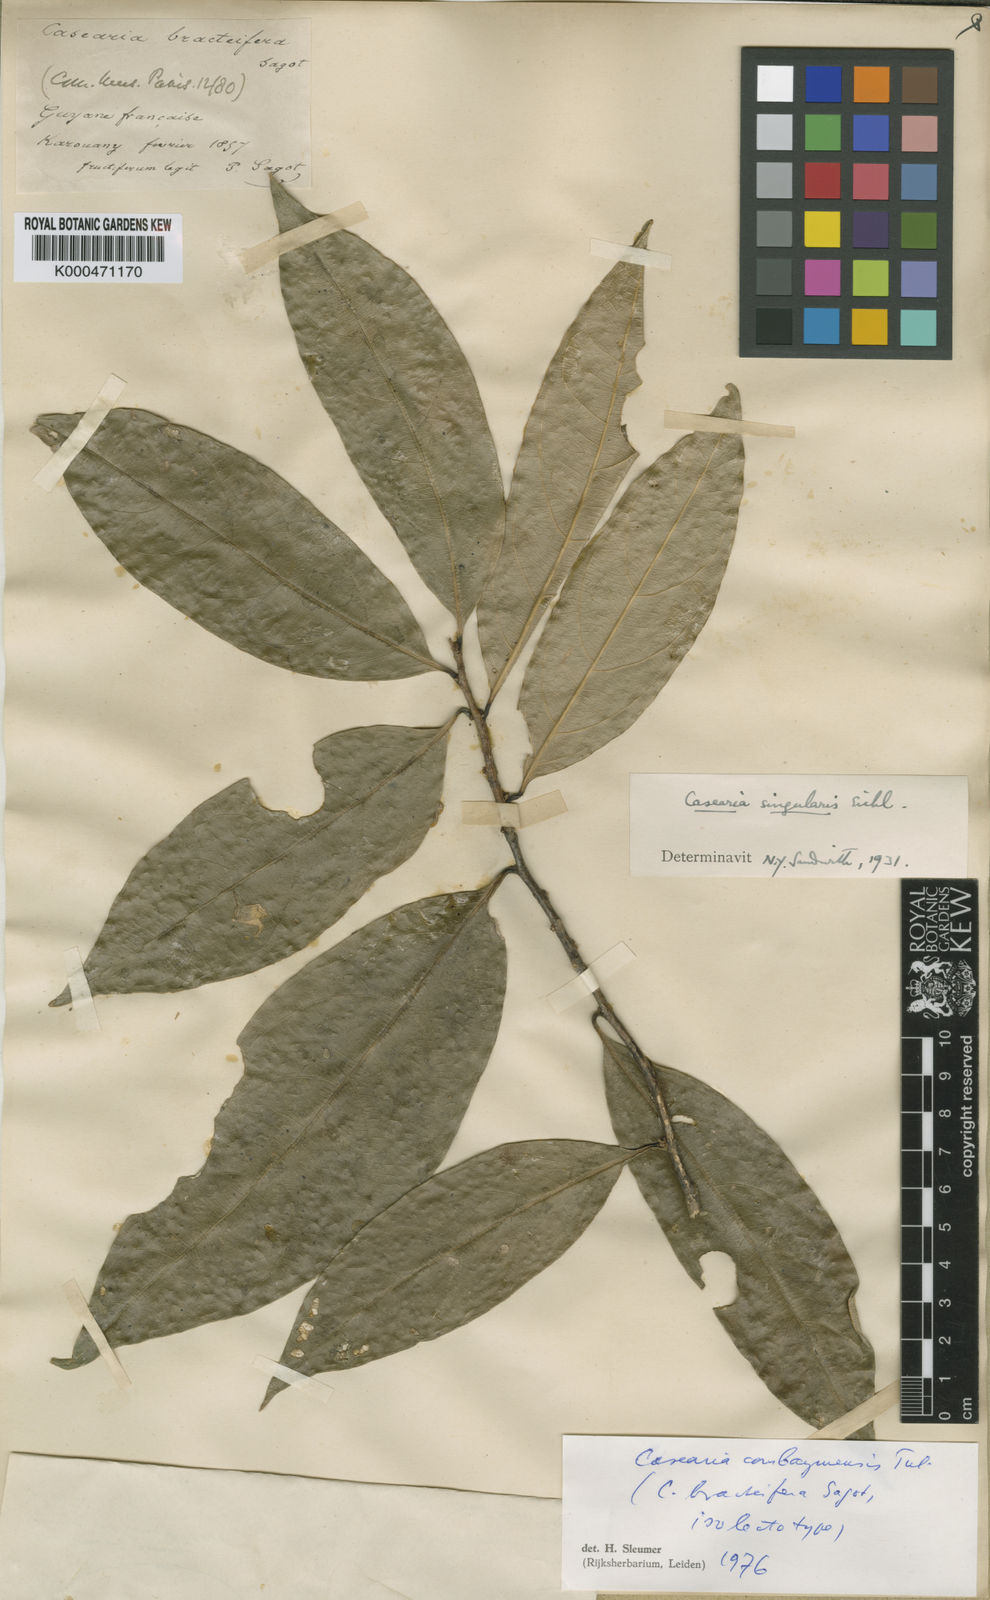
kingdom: Plantae
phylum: Tracheophyta
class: Magnoliopsida
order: Malpighiales
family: Salicaceae
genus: Casearia
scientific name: Casearia combaymensis
